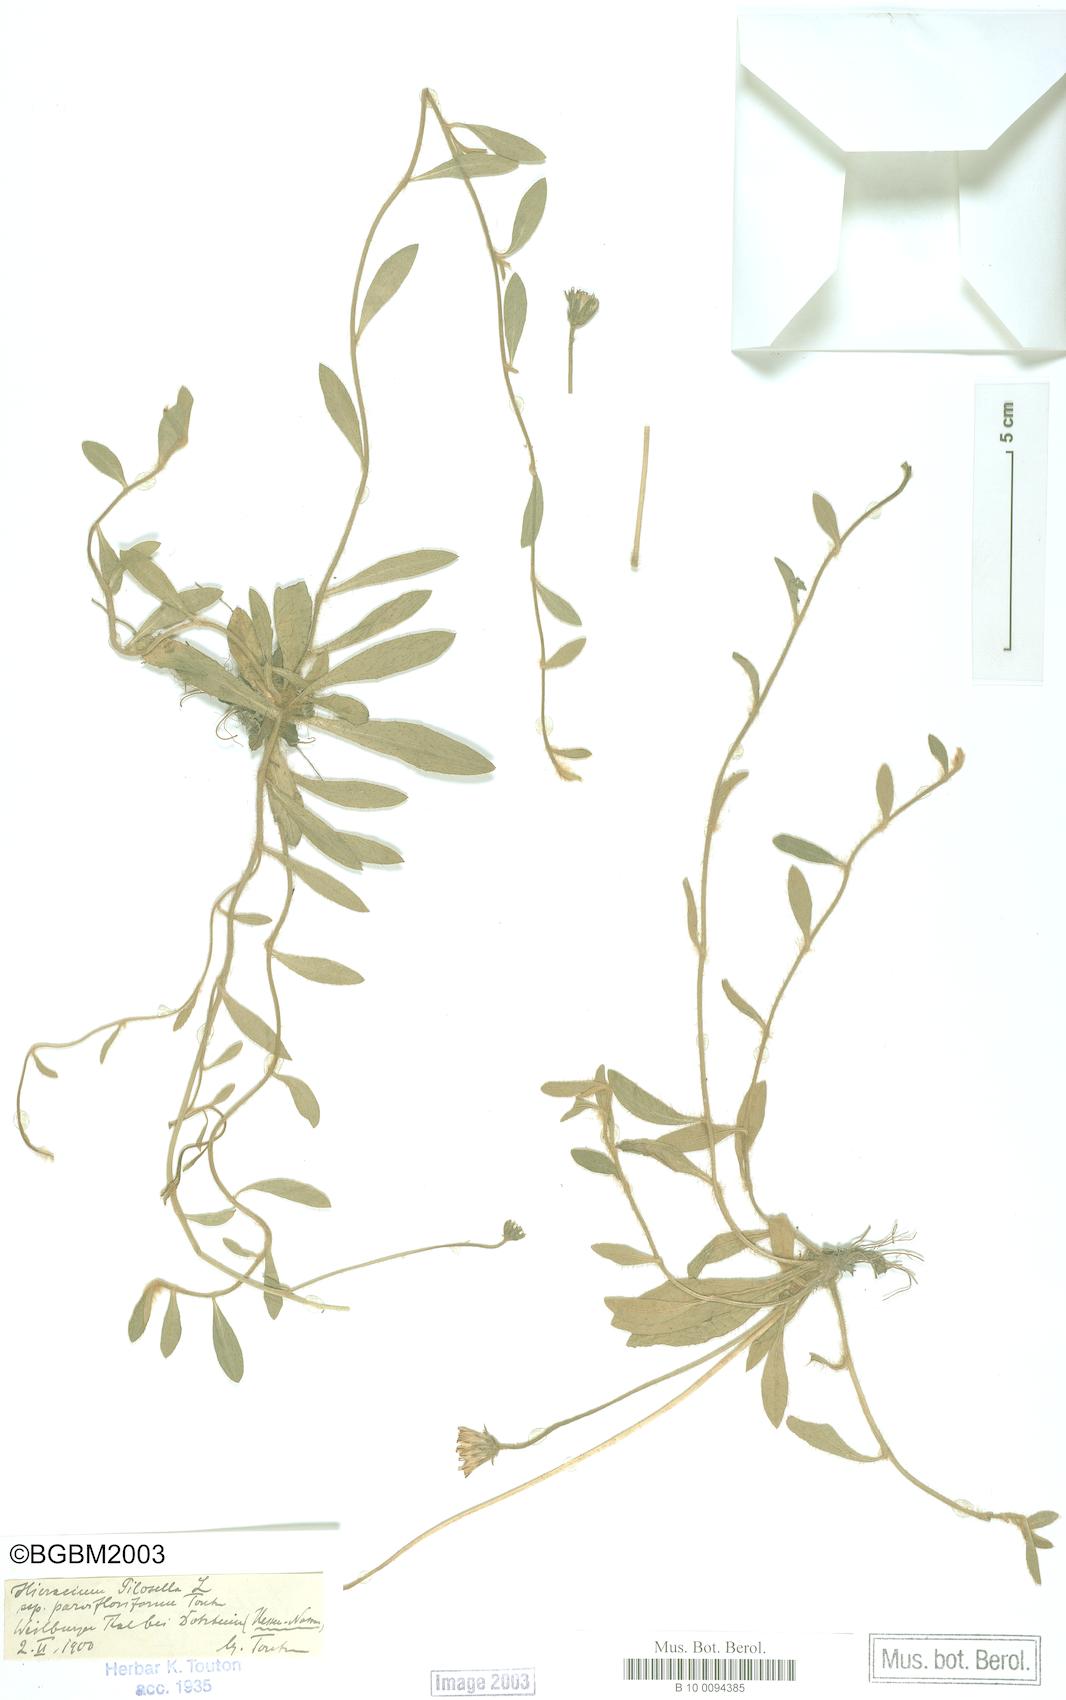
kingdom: Plantae
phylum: Tracheophyta
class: Magnoliopsida
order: Asterales
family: Asteraceae
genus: Pilosella
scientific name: Pilosella officinarum
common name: Mouse-ear hawkweed
